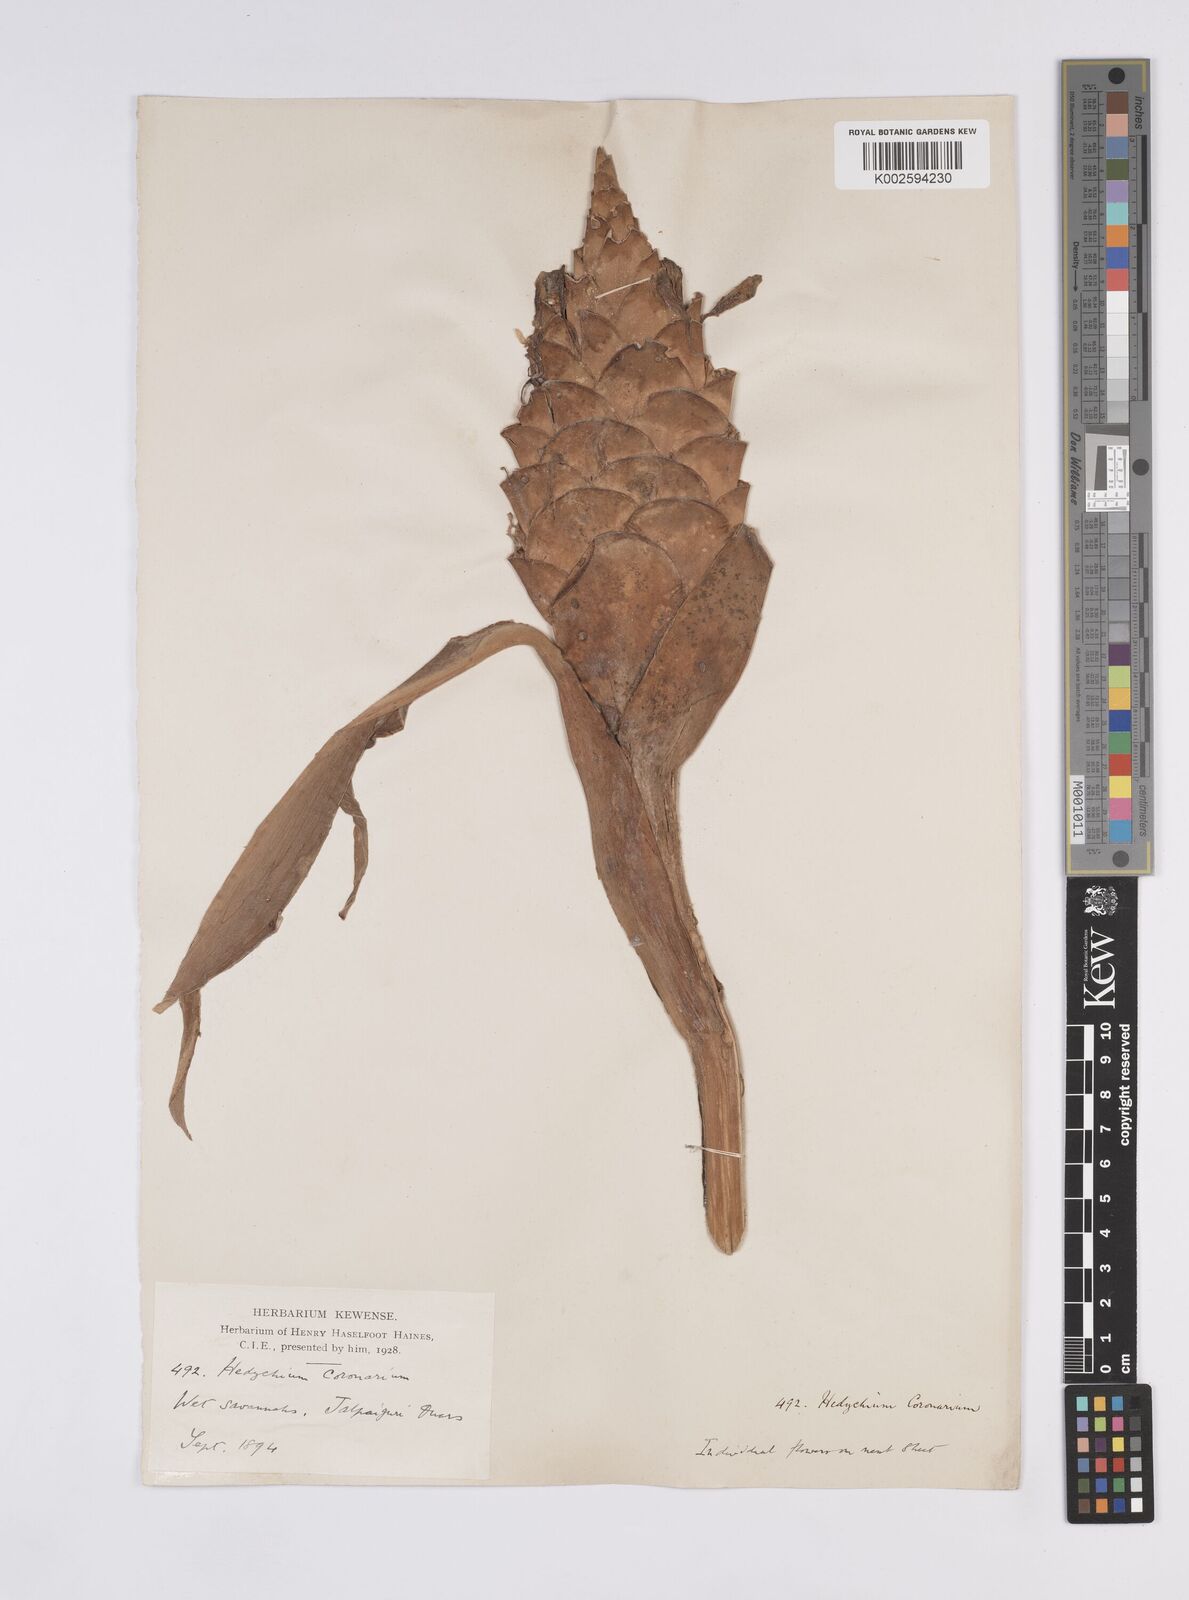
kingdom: Plantae
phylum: Tracheophyta
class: Liliopsida
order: Zingiberales
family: Zingiberaceae
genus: Hedychium
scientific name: Hedychium coronarium
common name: White garland-lily
